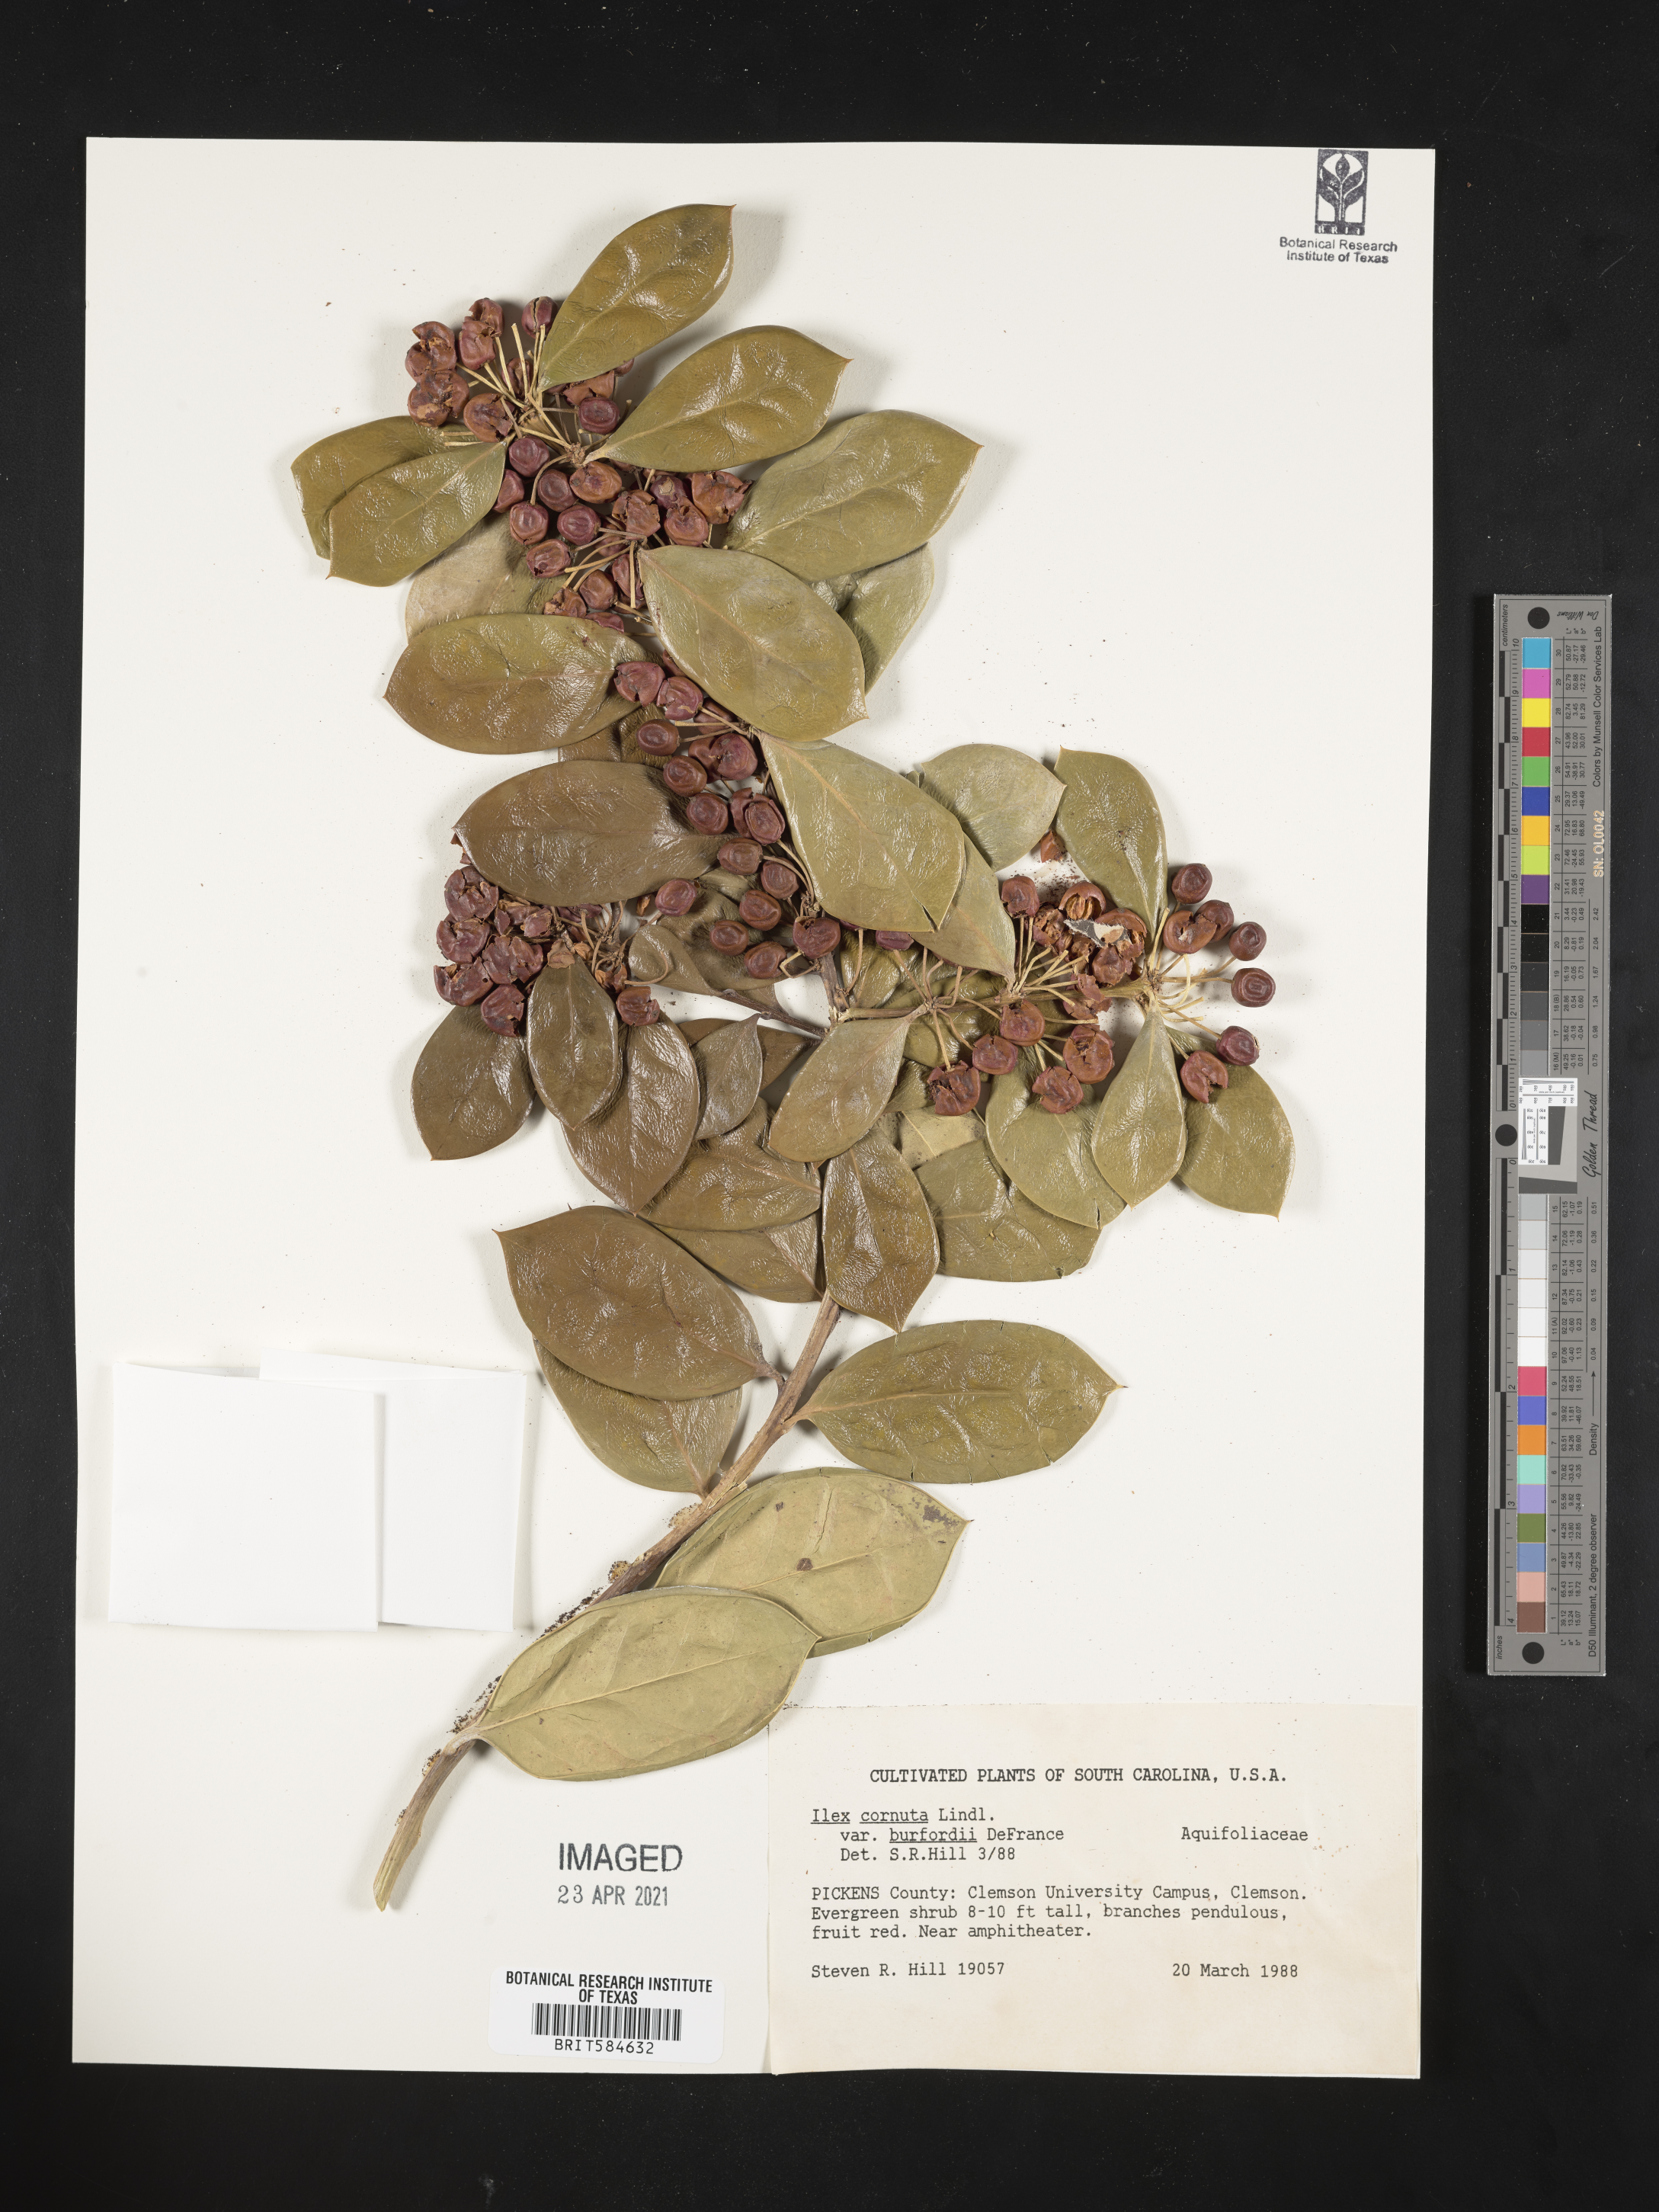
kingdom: Plantae
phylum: Tracheophyta
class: Magnoliopsida
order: Aquifoliales
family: Aquifoliaceae
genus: Ilex
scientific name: Ilex cornuta
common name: Chinese holly
